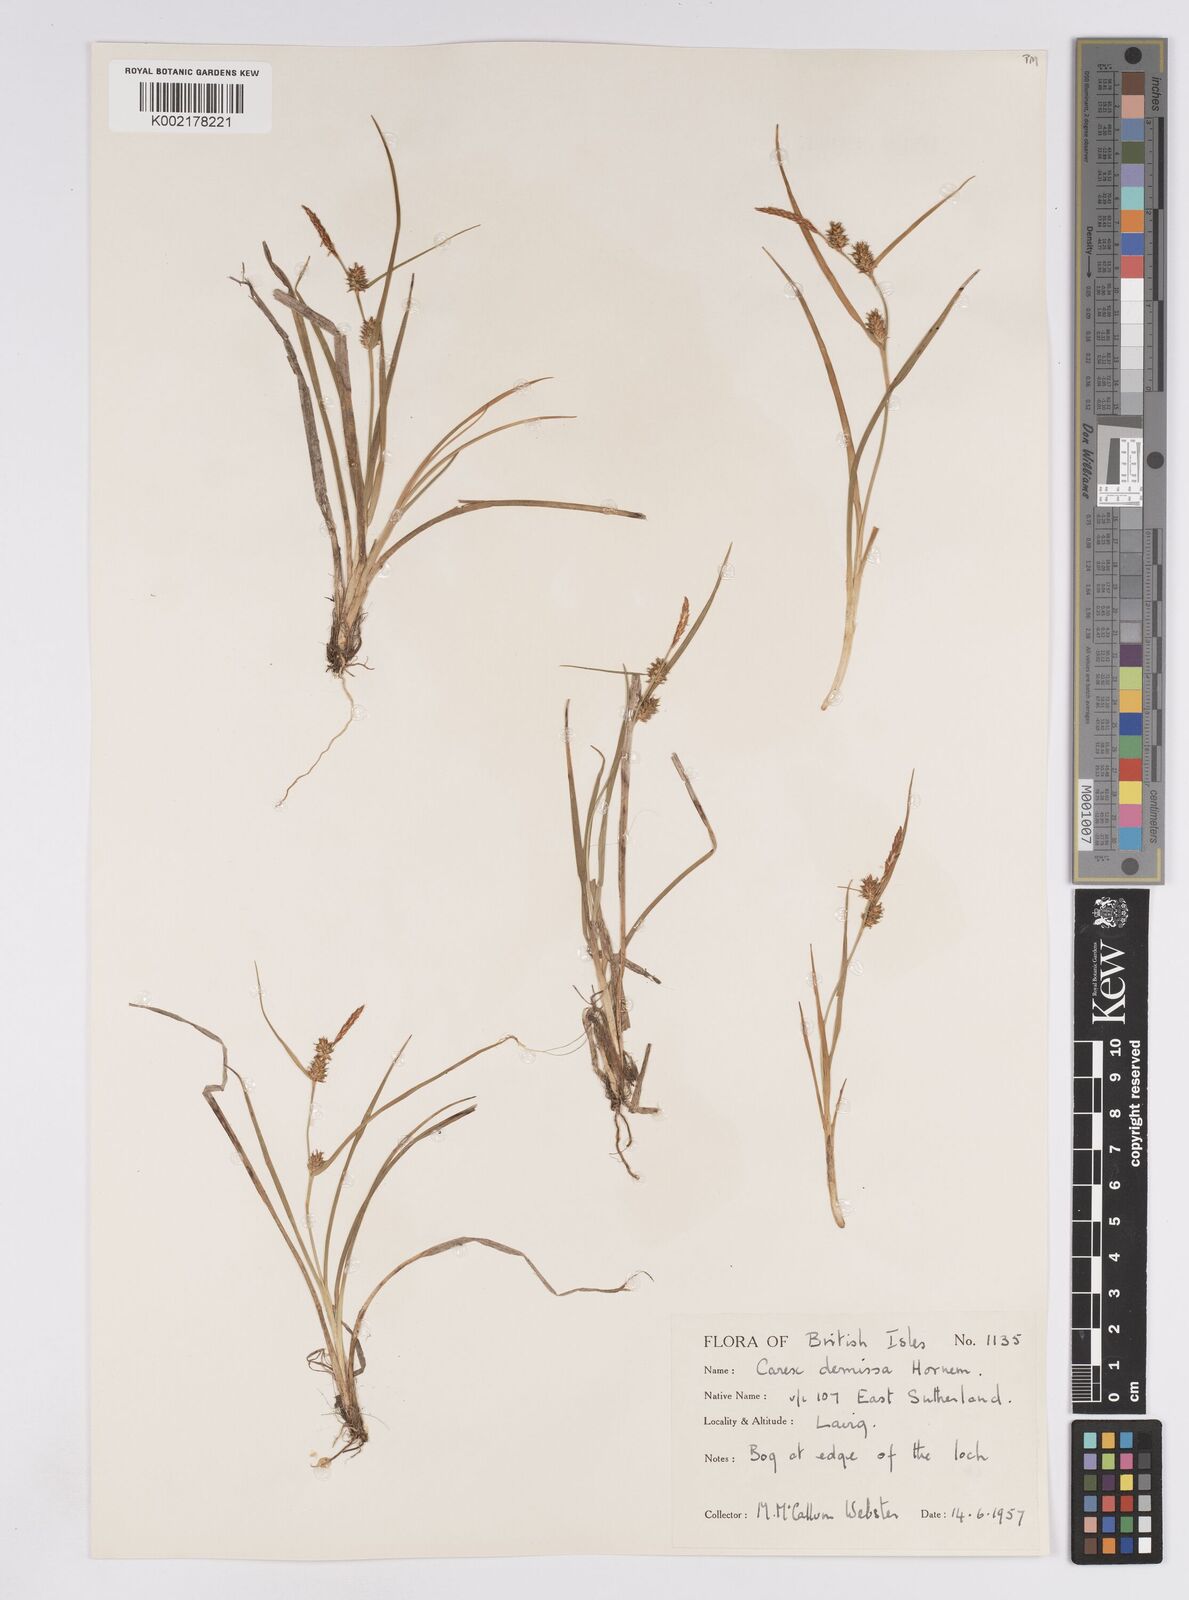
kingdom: Plantae
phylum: Tracheophyta
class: Liliopsida
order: Poales
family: Cyperaceae
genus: Carex
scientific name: Carex demissa
